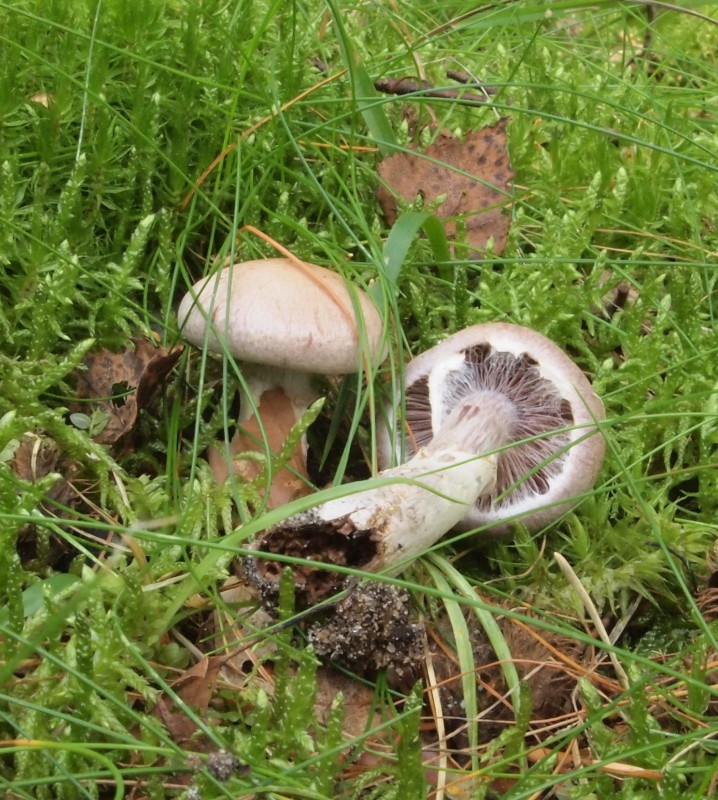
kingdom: Fungi
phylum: Basidiomycota
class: Agaricomycetes
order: Agaricales
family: Cortinariaceae
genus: Cortinarius
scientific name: Cortinarius torvus
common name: champignonagtig slørhat
